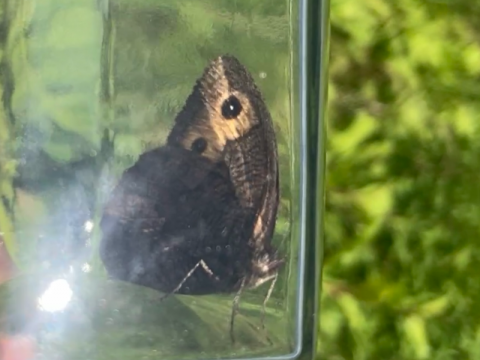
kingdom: Animalia
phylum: Arthropoda
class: Insecta
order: Lepidoptera
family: Nymphalidae
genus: Cercyonis
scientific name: Cercyonis pegala
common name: Common Wood-Nymph
